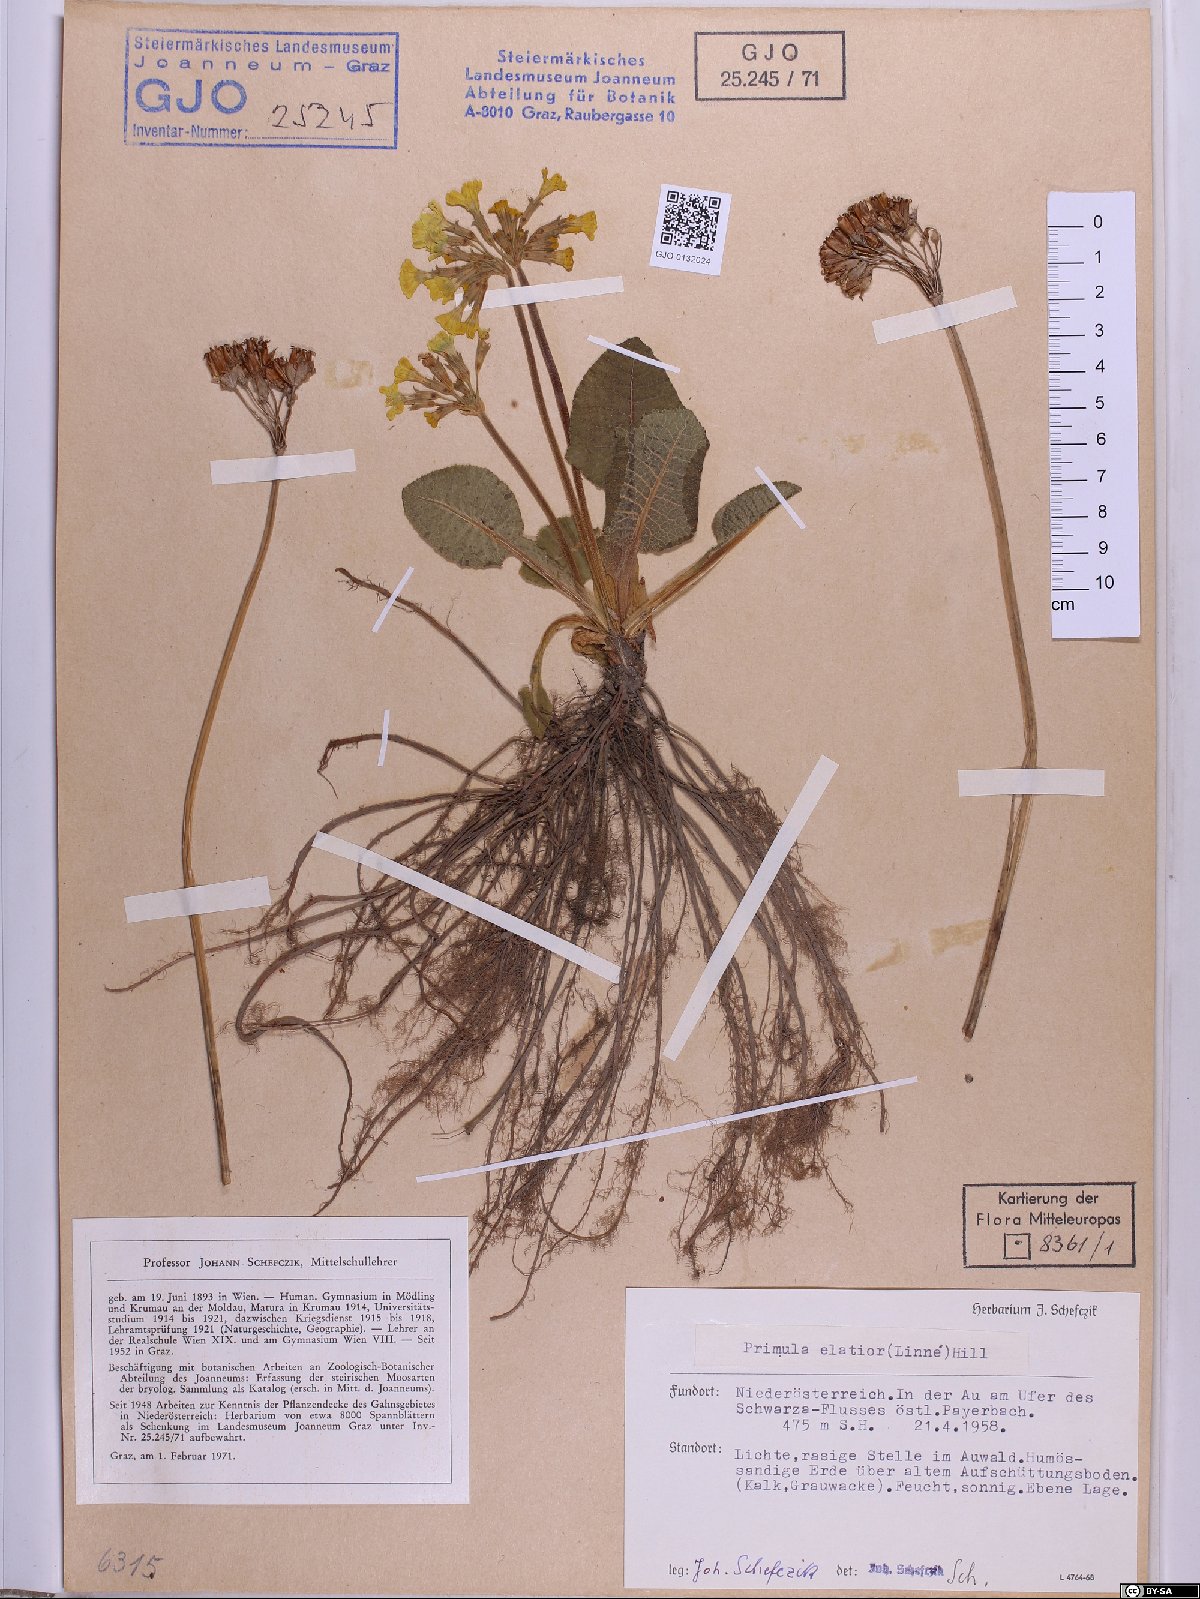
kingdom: Plantae
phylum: Tracheophyta
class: Magnoliopsida
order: Ericales
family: Primulaceae
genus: Primula
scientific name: Primula elatior
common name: Oxlip
